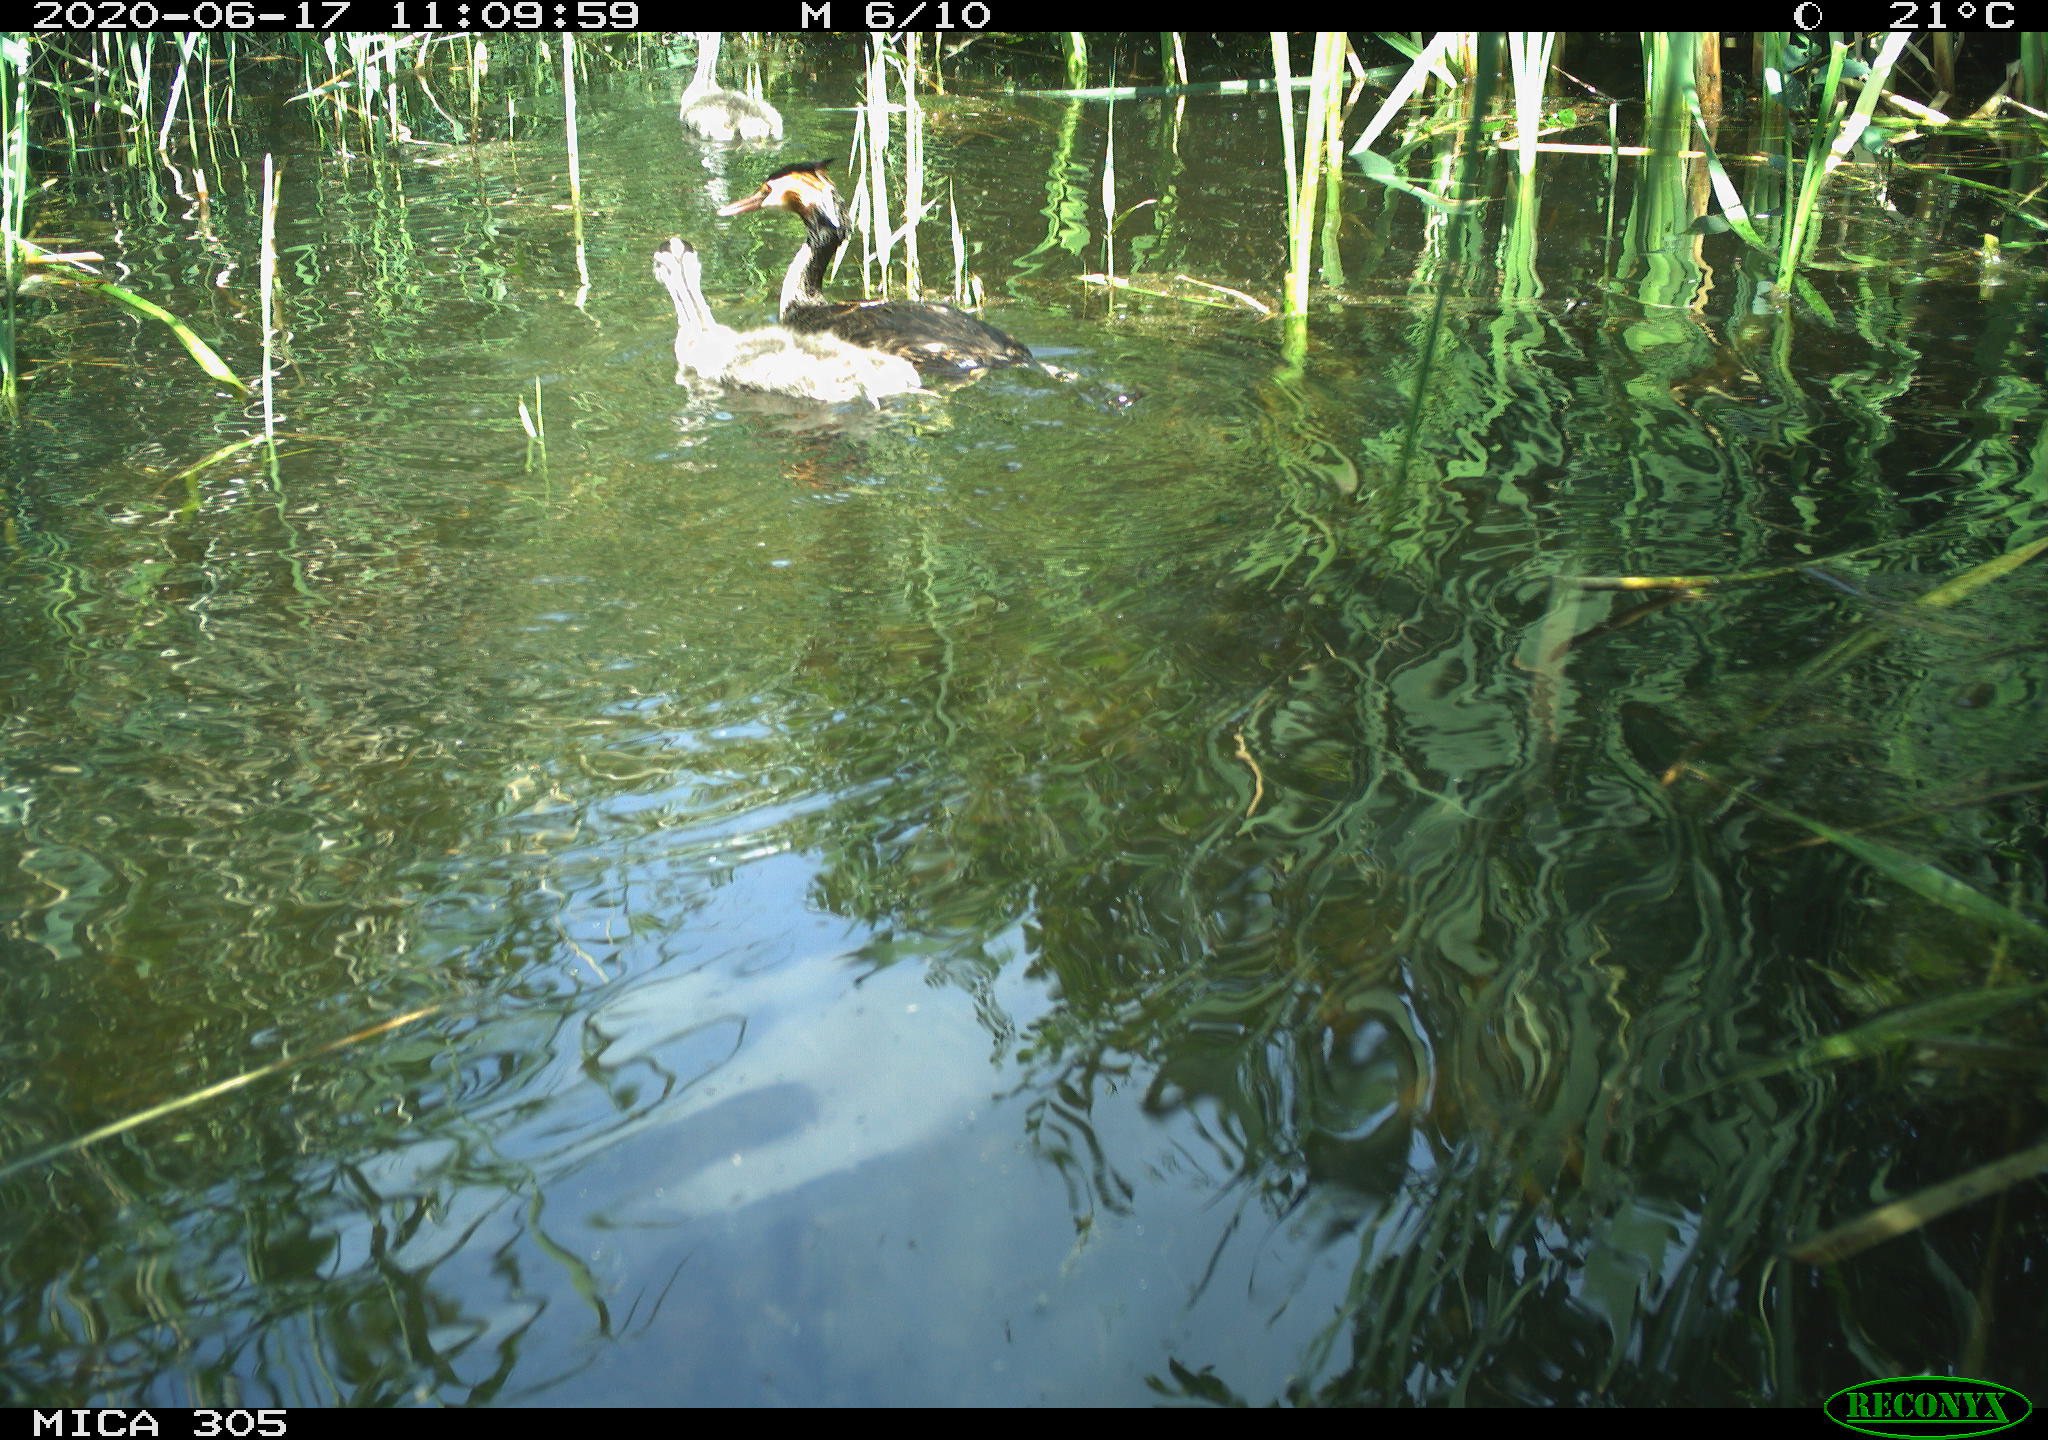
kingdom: Animalia
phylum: Chordata
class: Aves
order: Podicipediformes
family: Podicipedidae
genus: Podiceps
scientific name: Podiceps cristatus
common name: Great crested grebe
